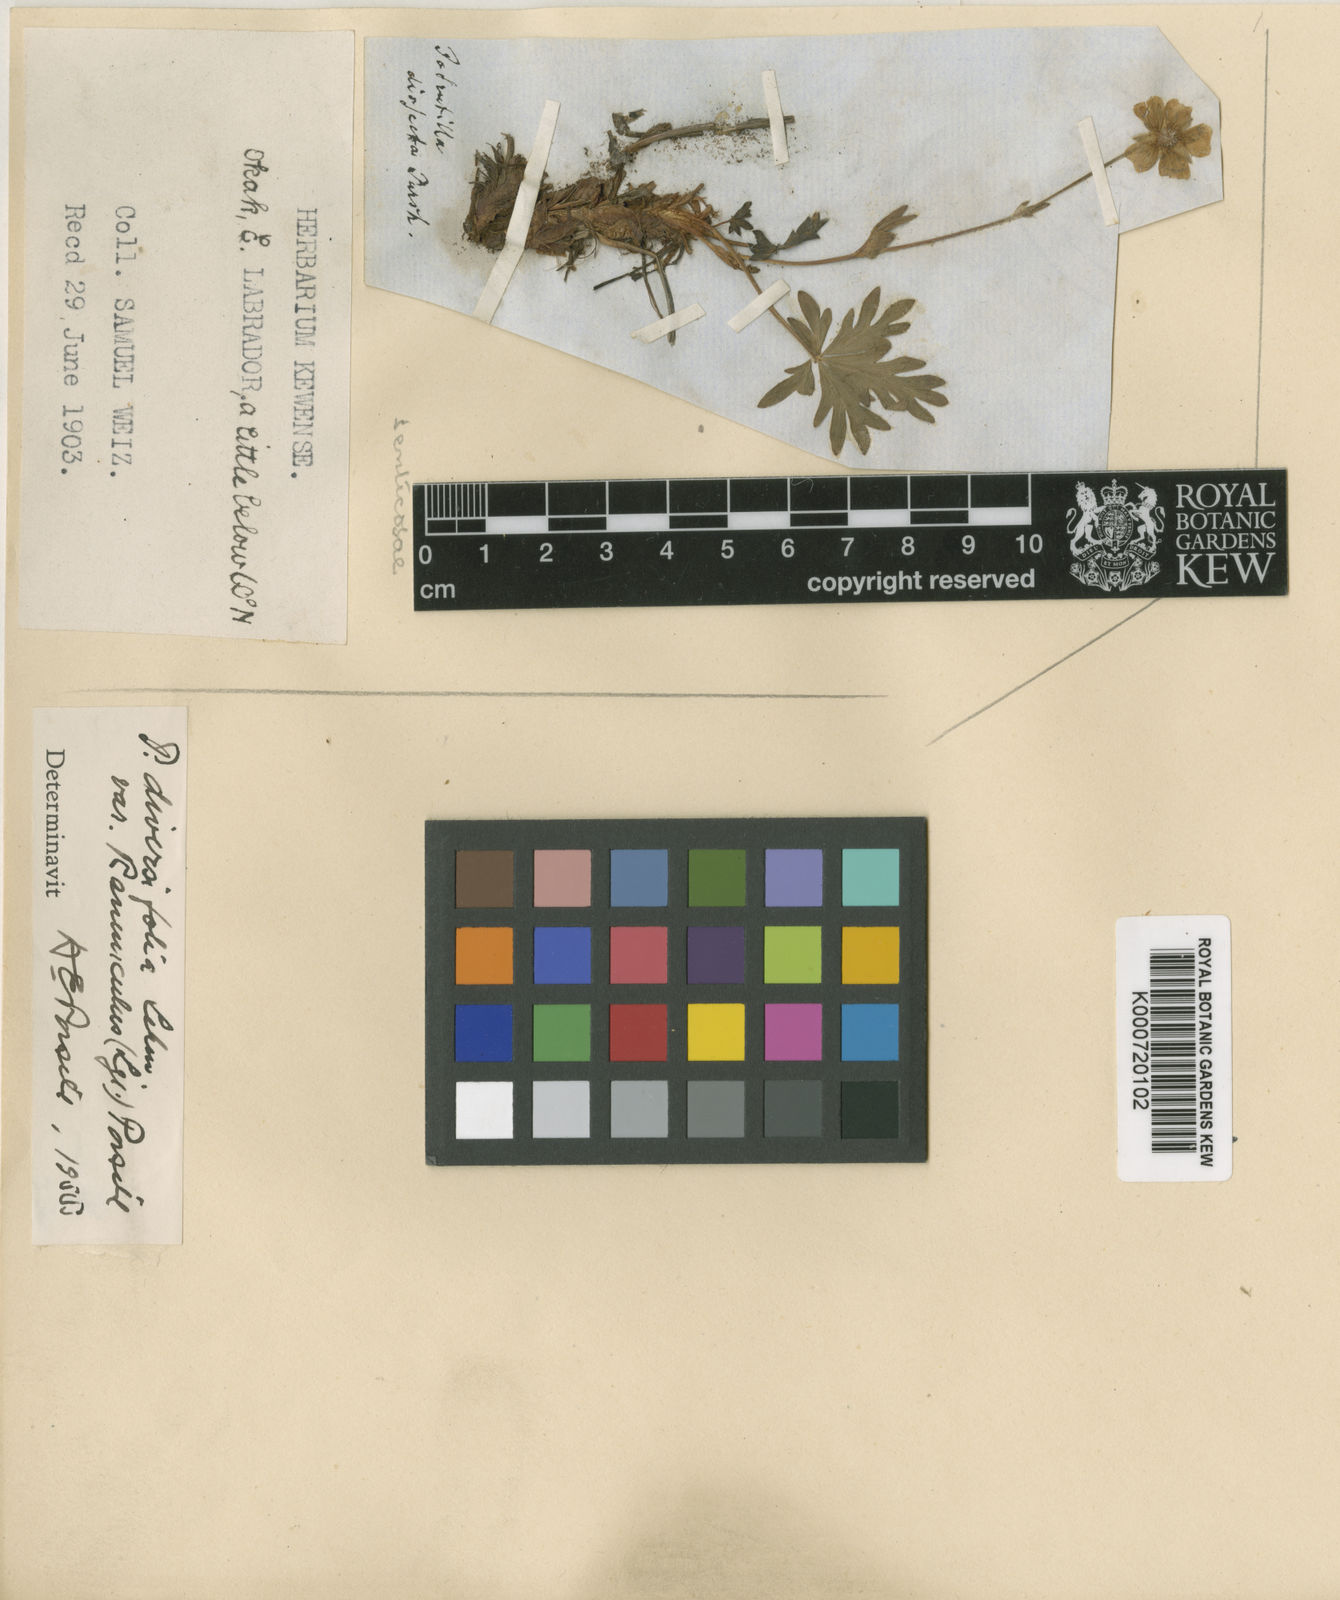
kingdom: Plantae
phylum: Tracheophyta
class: Magnoliopsida
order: Rosales
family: Rosaceae
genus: Potentilla
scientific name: Potentilla diversifolia
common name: Varileaf cinquefoil
